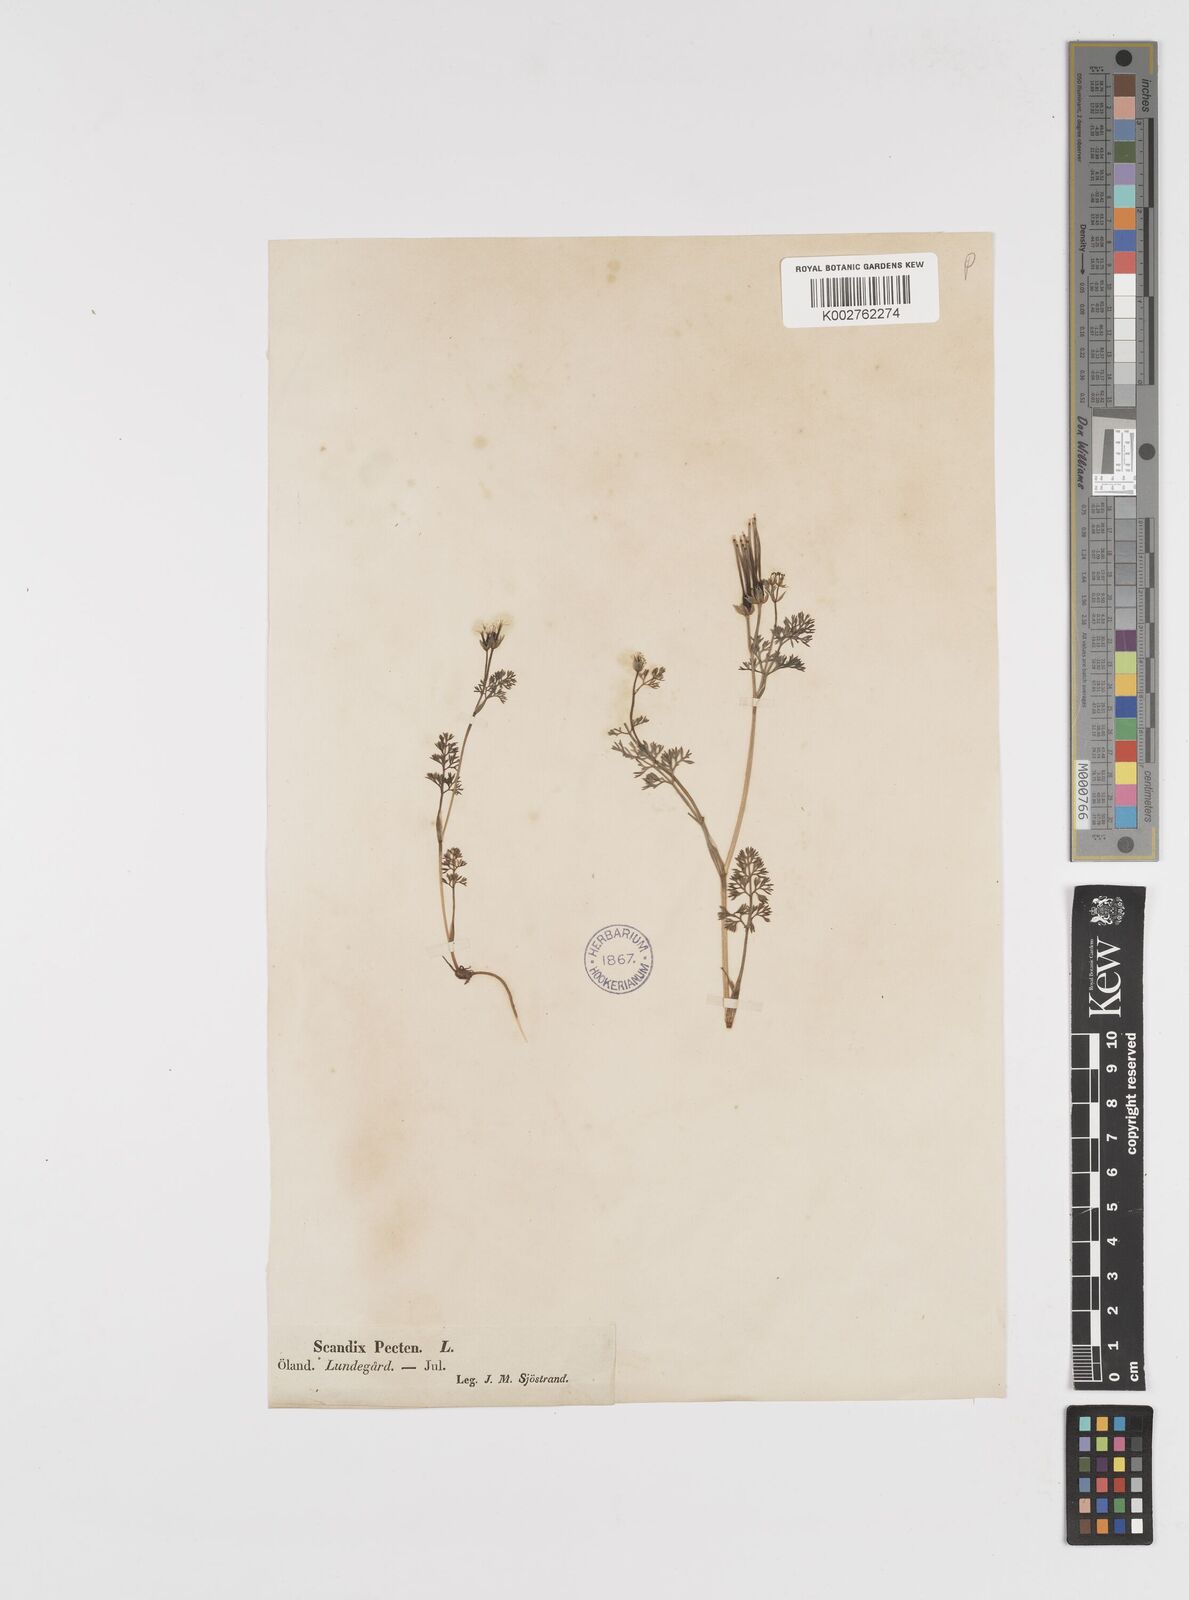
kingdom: Plantae
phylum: Tracheophyta
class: Magnoliopsida
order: Apiales
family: Apiaceae
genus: Scandix
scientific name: Scandix pecten-veneris
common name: Shepherd's-needle
